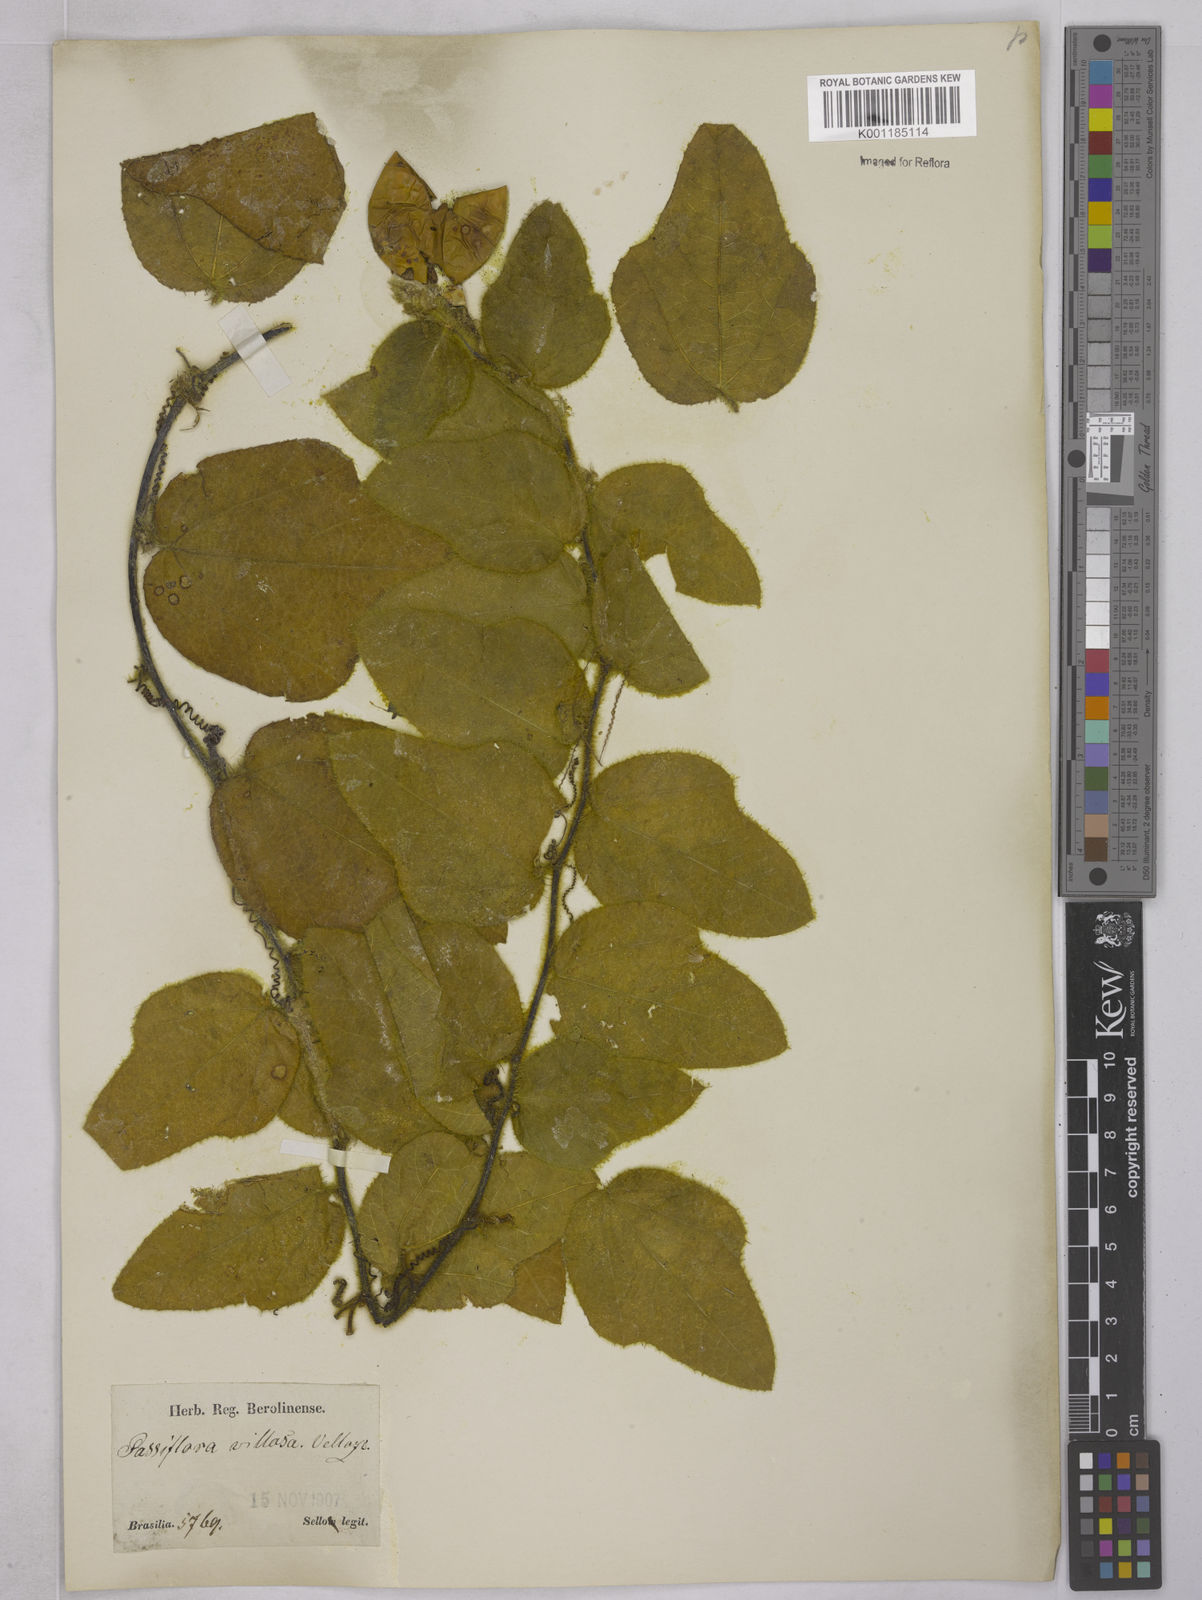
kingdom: Plantae
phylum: Tracheophyta
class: Magnoliopsida
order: Malpighiales
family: Passifloraceae
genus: Passiflora
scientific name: Passiflora villosa
